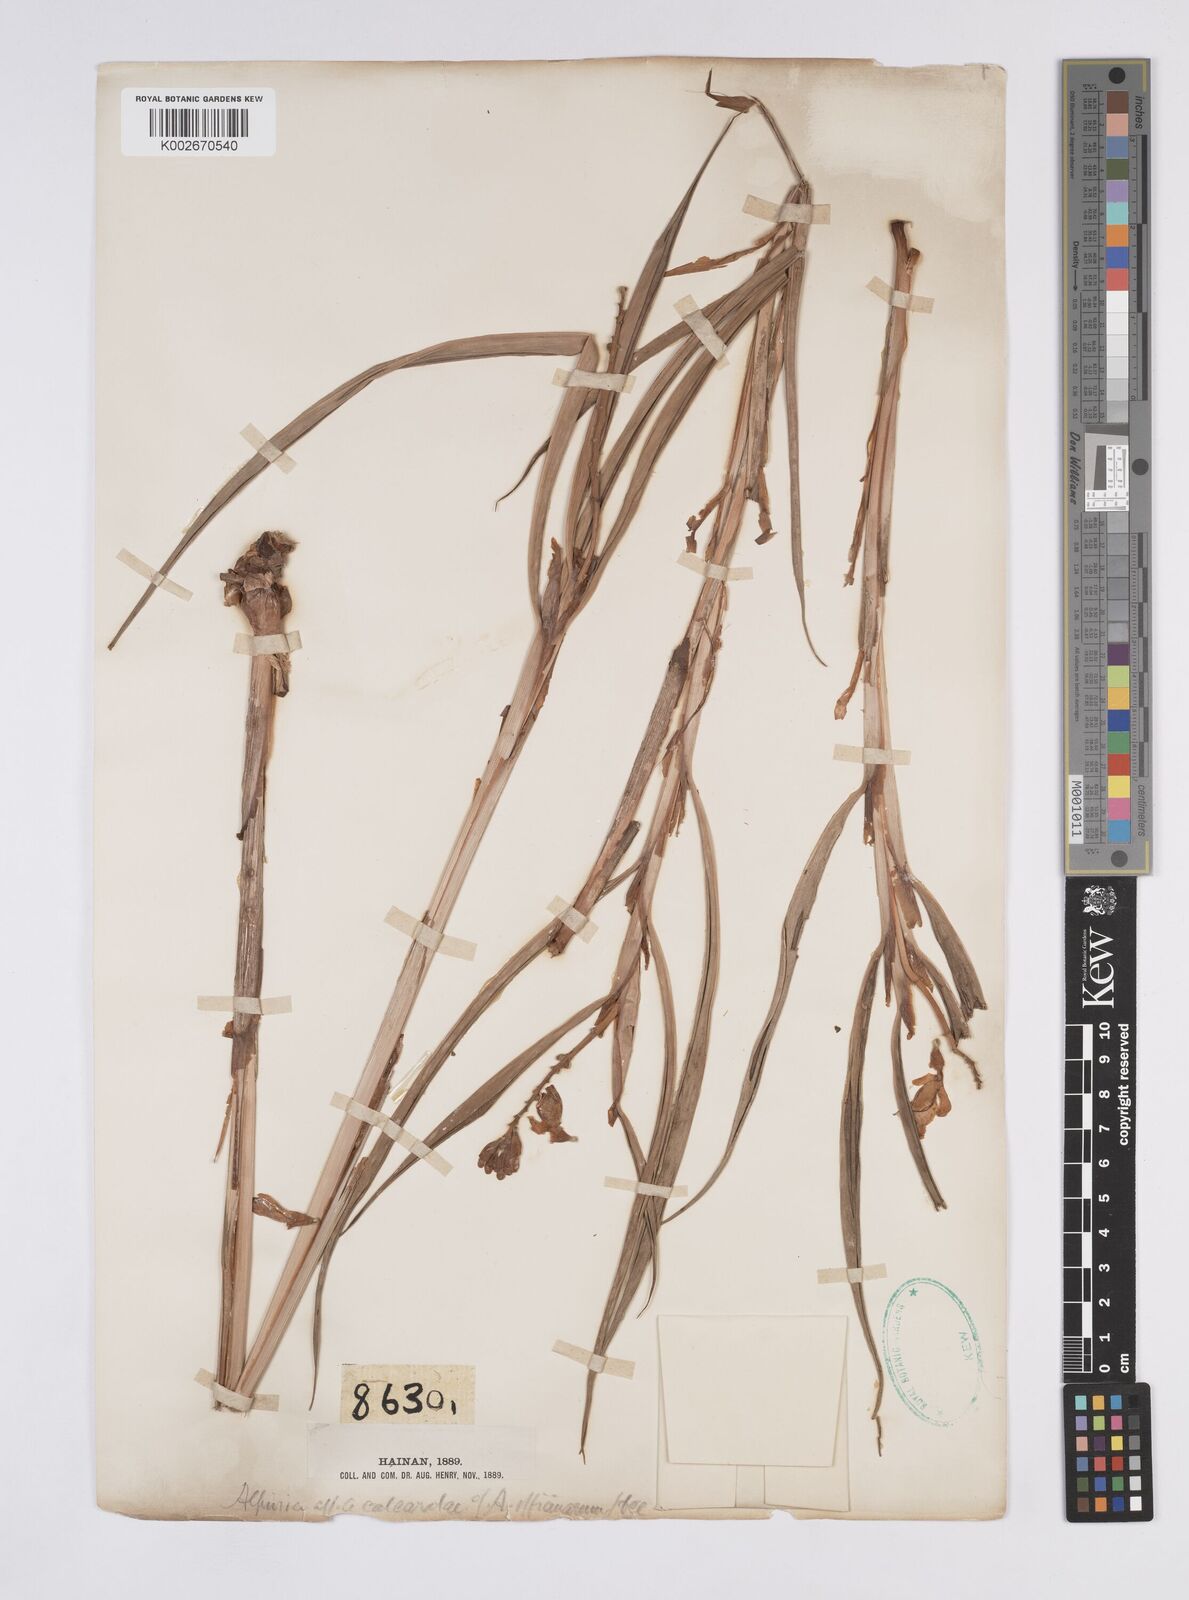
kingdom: Plantae
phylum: Tracheophyta
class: Liliopsida
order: Zingiberales
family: Zingiberaceae
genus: Alpinia
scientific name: Alpinia officinarum
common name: Chinese-ginger
